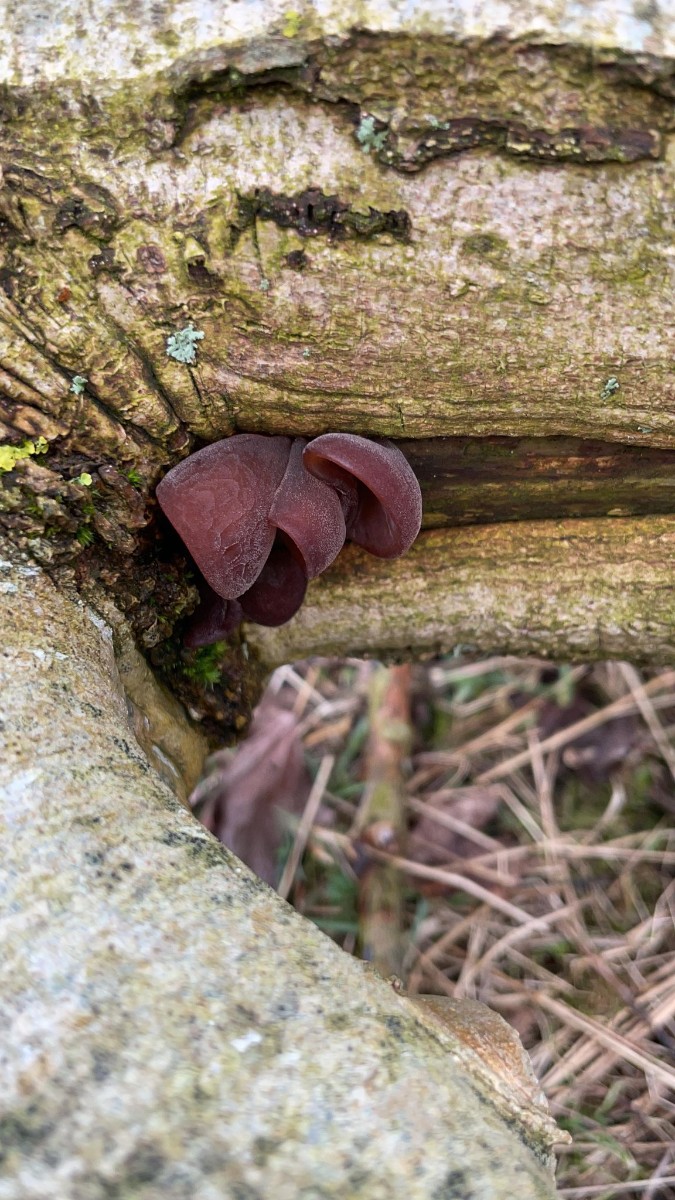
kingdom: Fungi
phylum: Basidiomycota
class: Agaricomycetes
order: Auriculariales
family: Auriculariaceae
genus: Auricularia
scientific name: Auricularia auricula-judae
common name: almindelig judasøre
